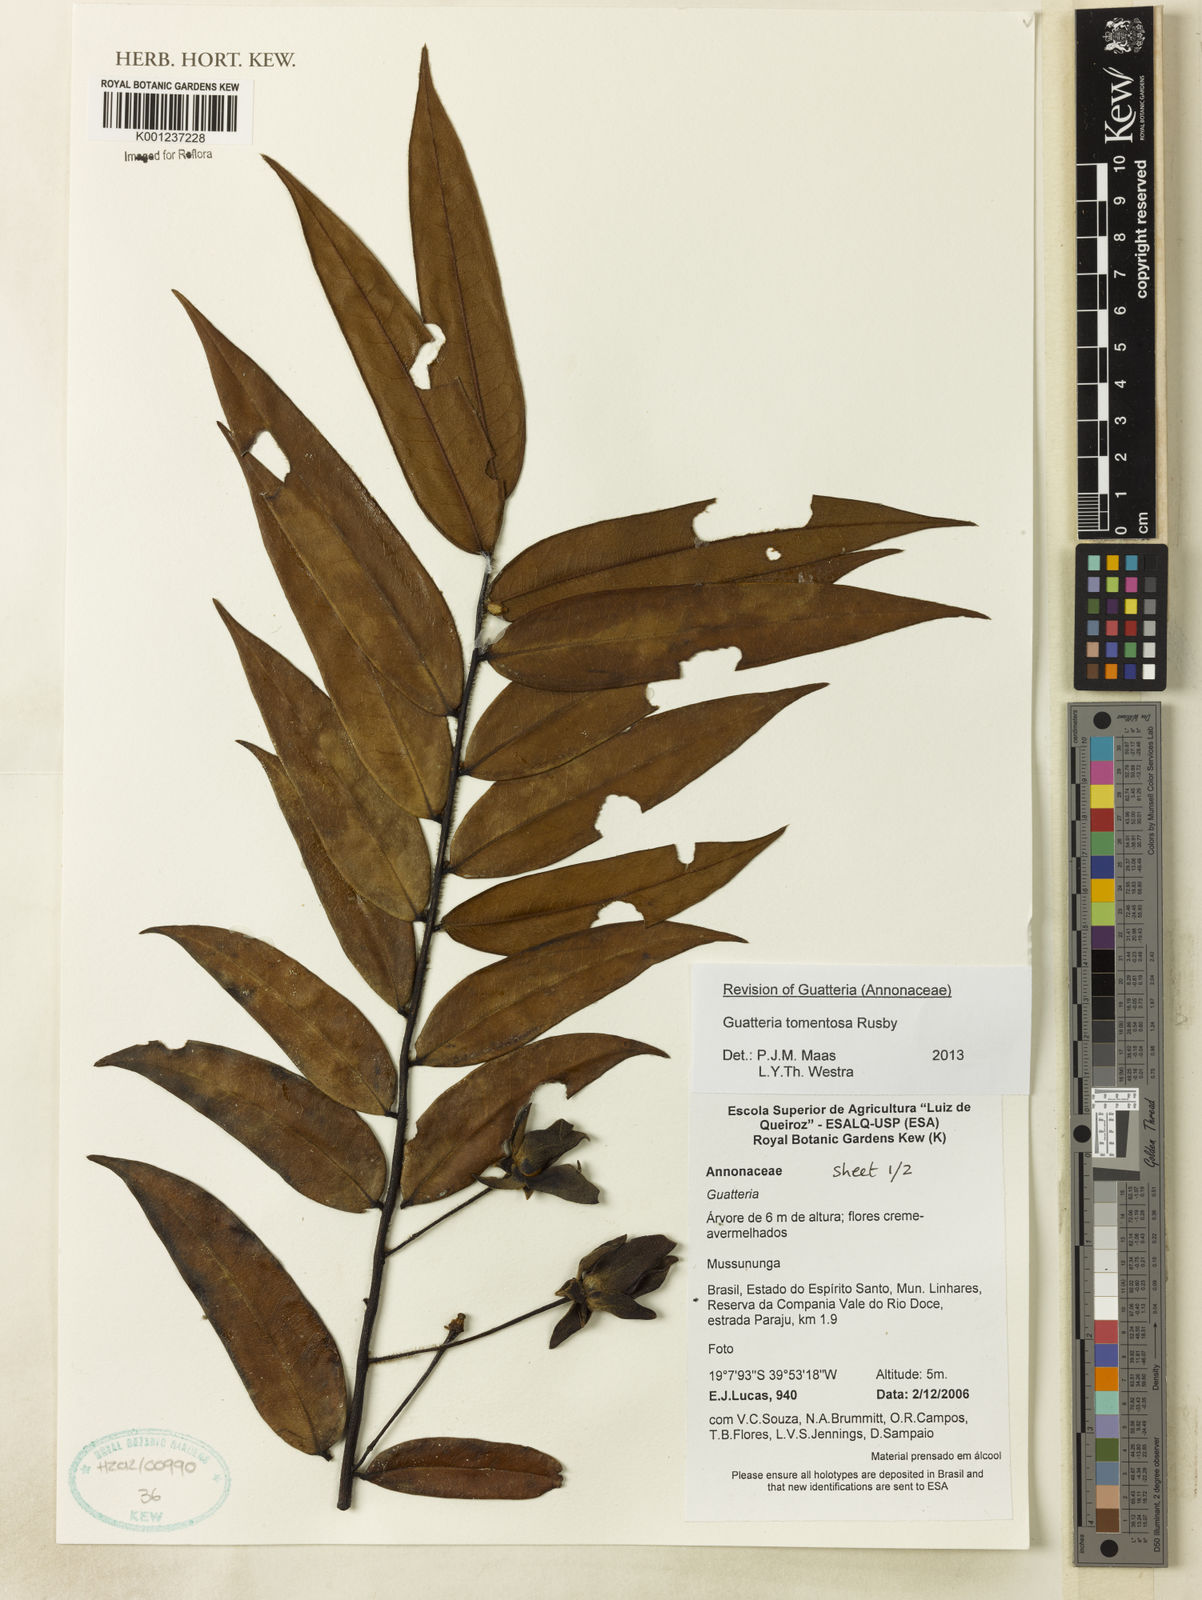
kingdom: Plantae
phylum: Tracheophyta
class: Magnoliopsida
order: Magnoliales
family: Annonaceae
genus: Guatteria
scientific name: Guatteria tomentosa
